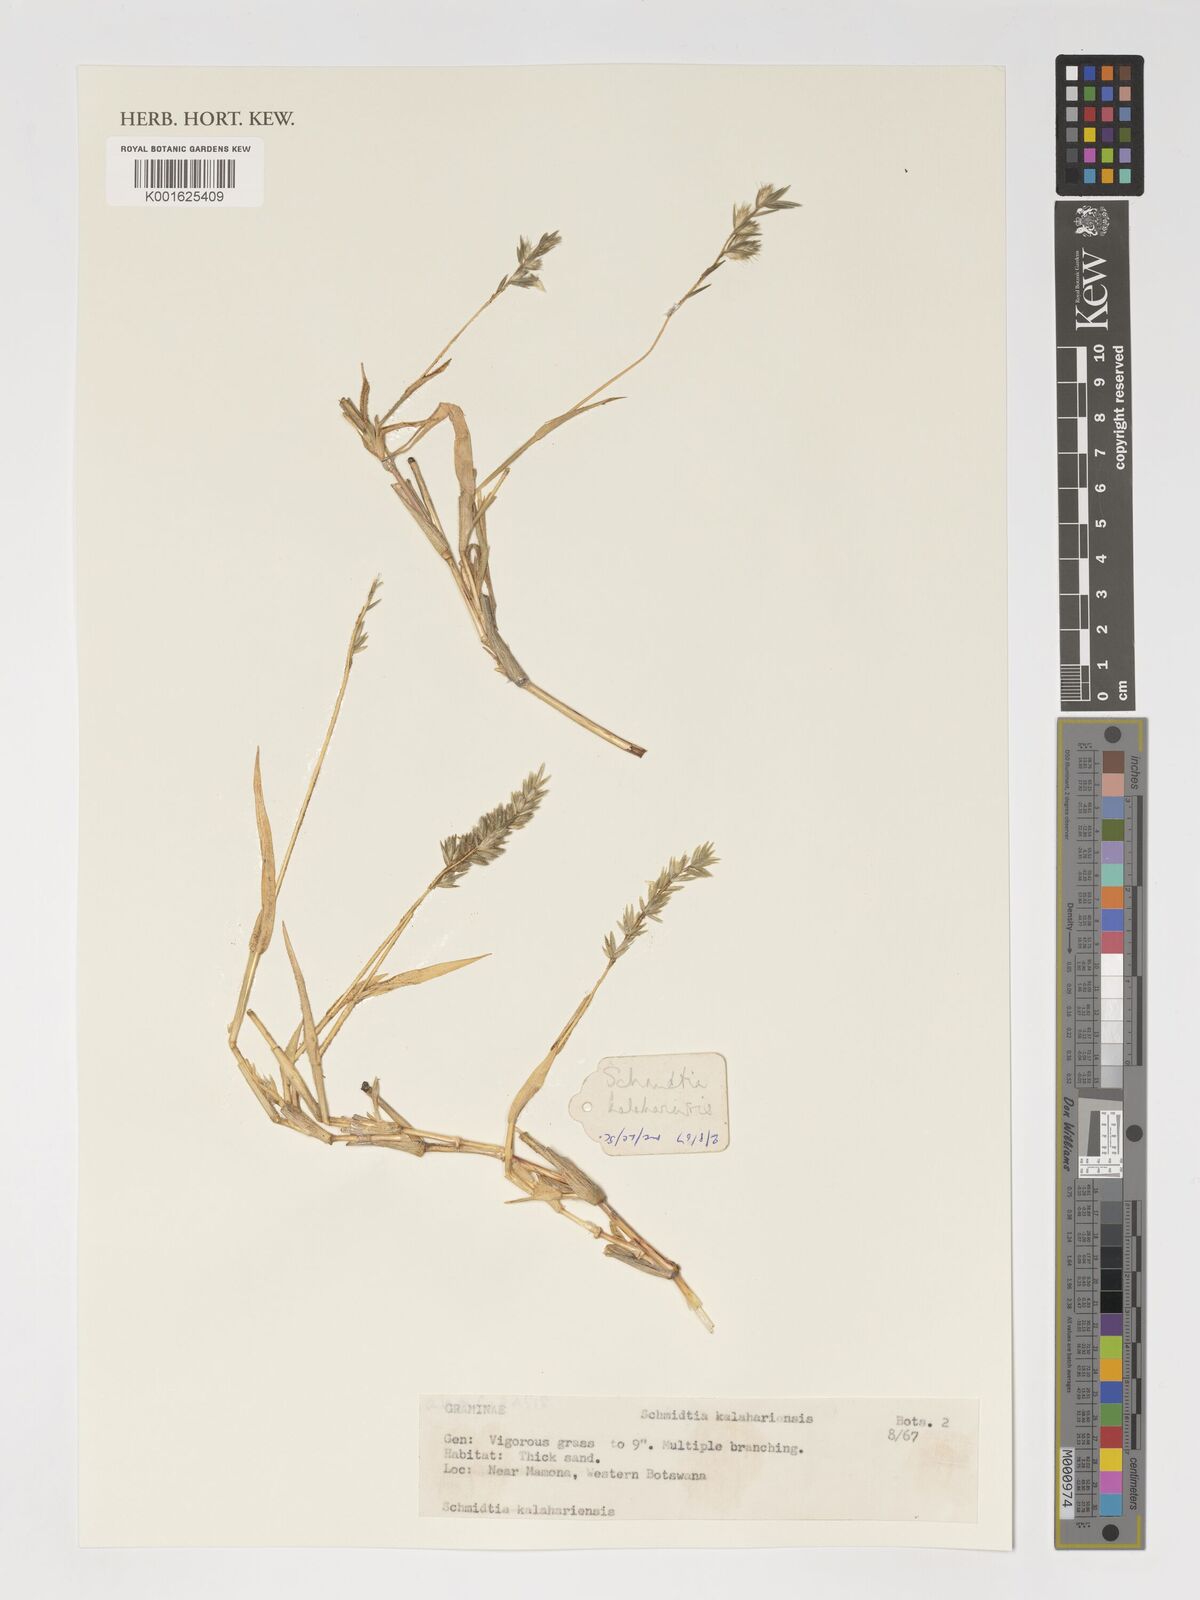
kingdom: Plantae
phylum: Tracheophyta
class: Liliopsida
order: Poales
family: Poaceae
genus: Schmidtia
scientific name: Schmidtia kalahariensis
